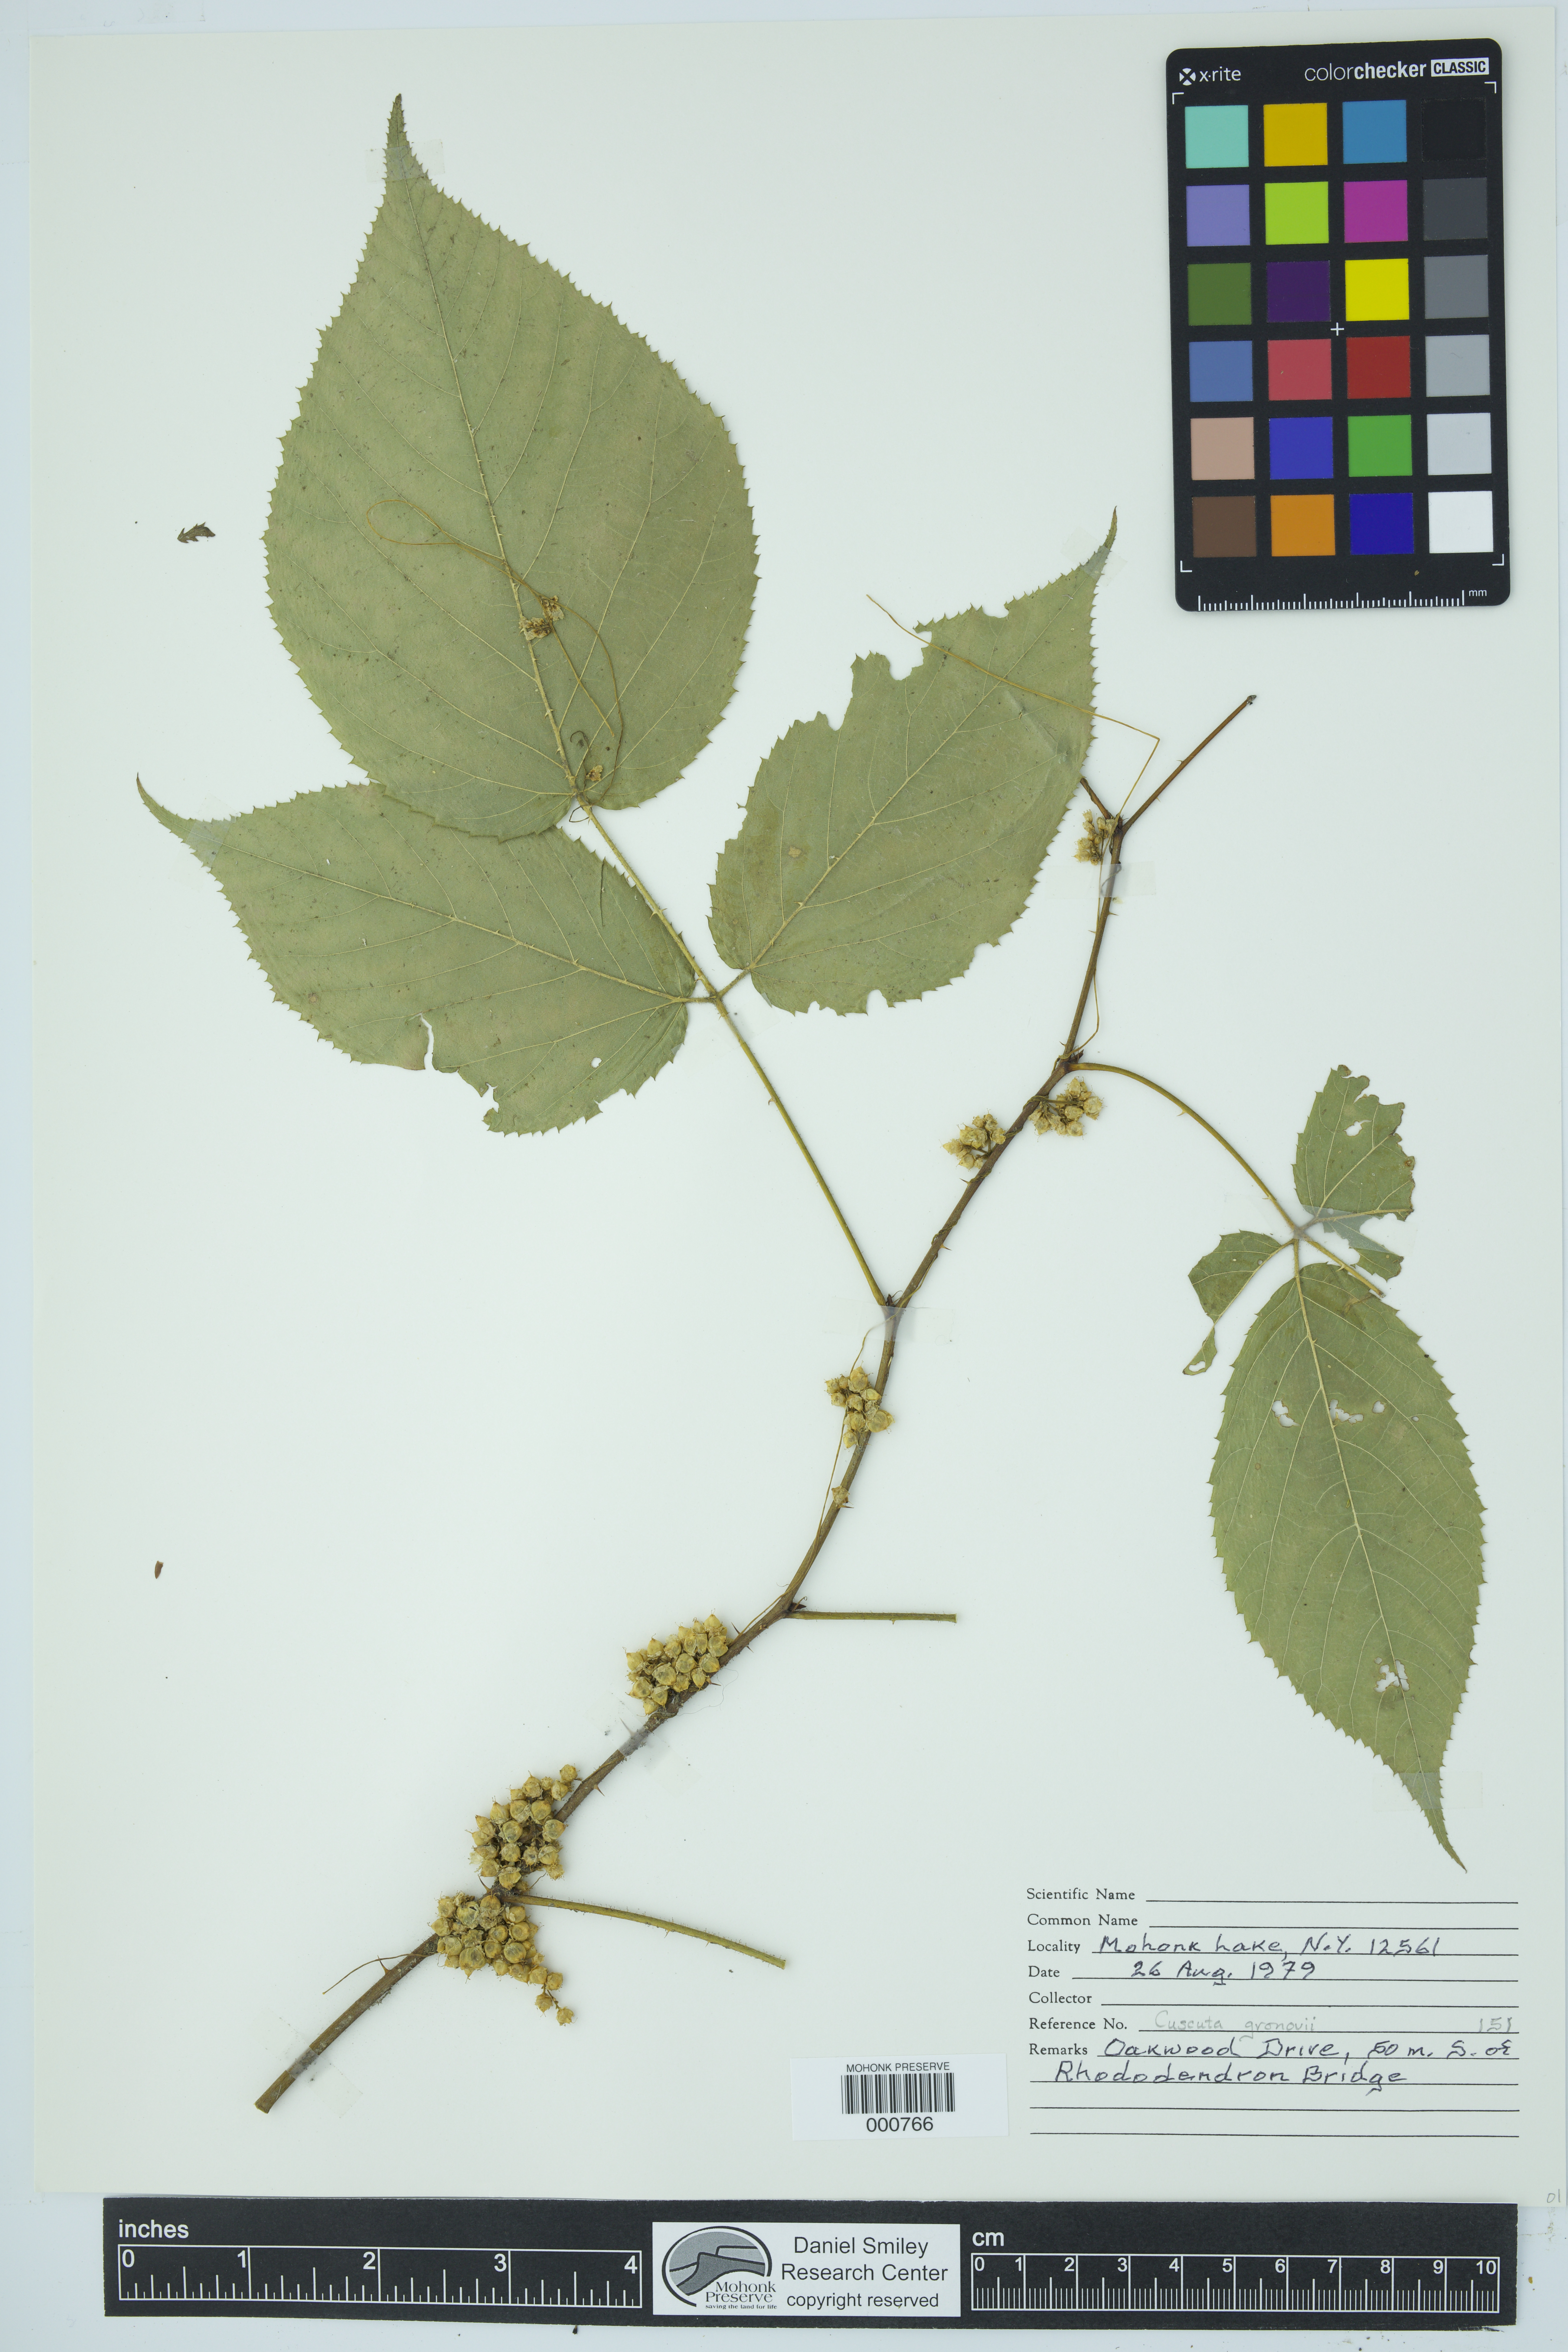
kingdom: Plantae
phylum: Tracheophyta
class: Magnoliopsida
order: Solanales
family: Convolvulaceae
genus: Cuscuta
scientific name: Cuscuta gronovii
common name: Common dodder
